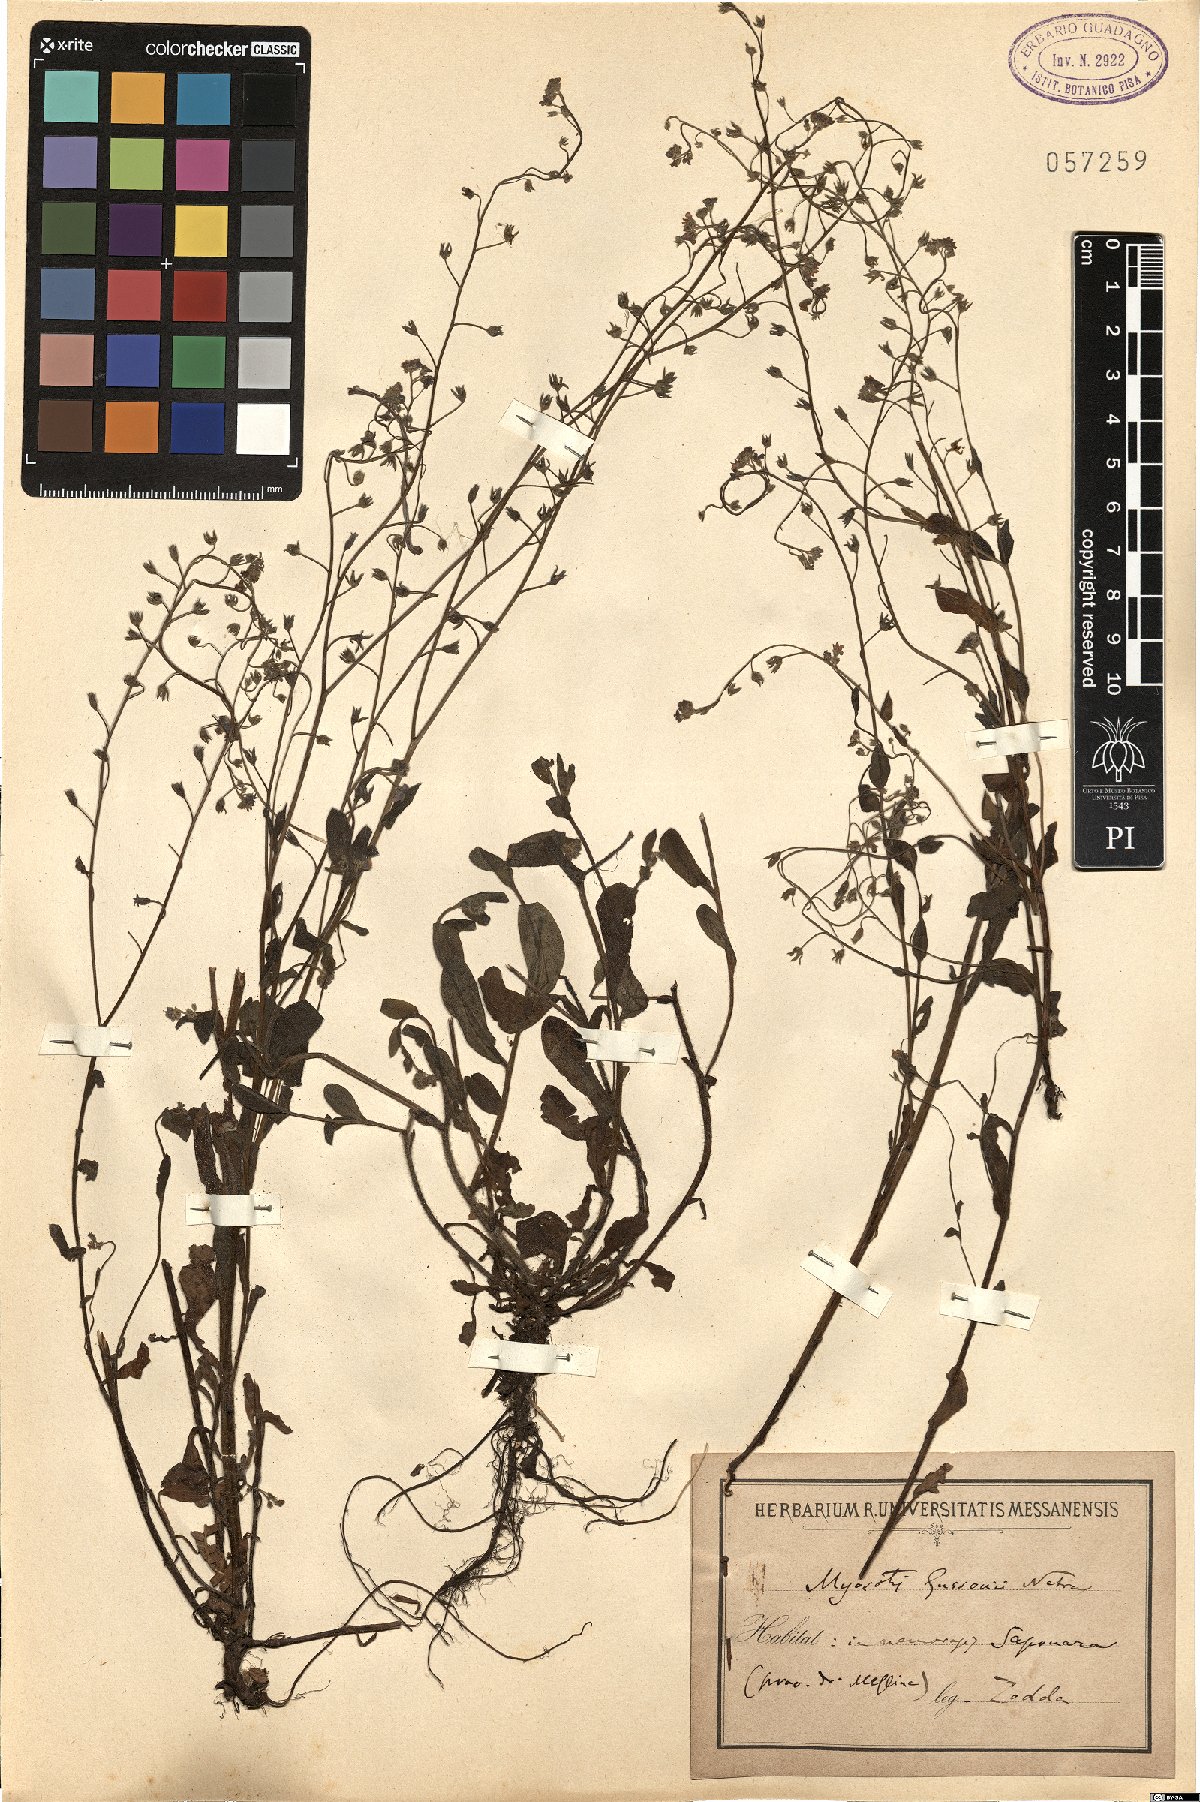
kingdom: Plantae
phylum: Tracheophyta
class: Magnoliopsida
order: Boraginales
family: Boraginaceae
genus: Myosotis
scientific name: Myosotis sicula
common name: Jersey forget-me-not
